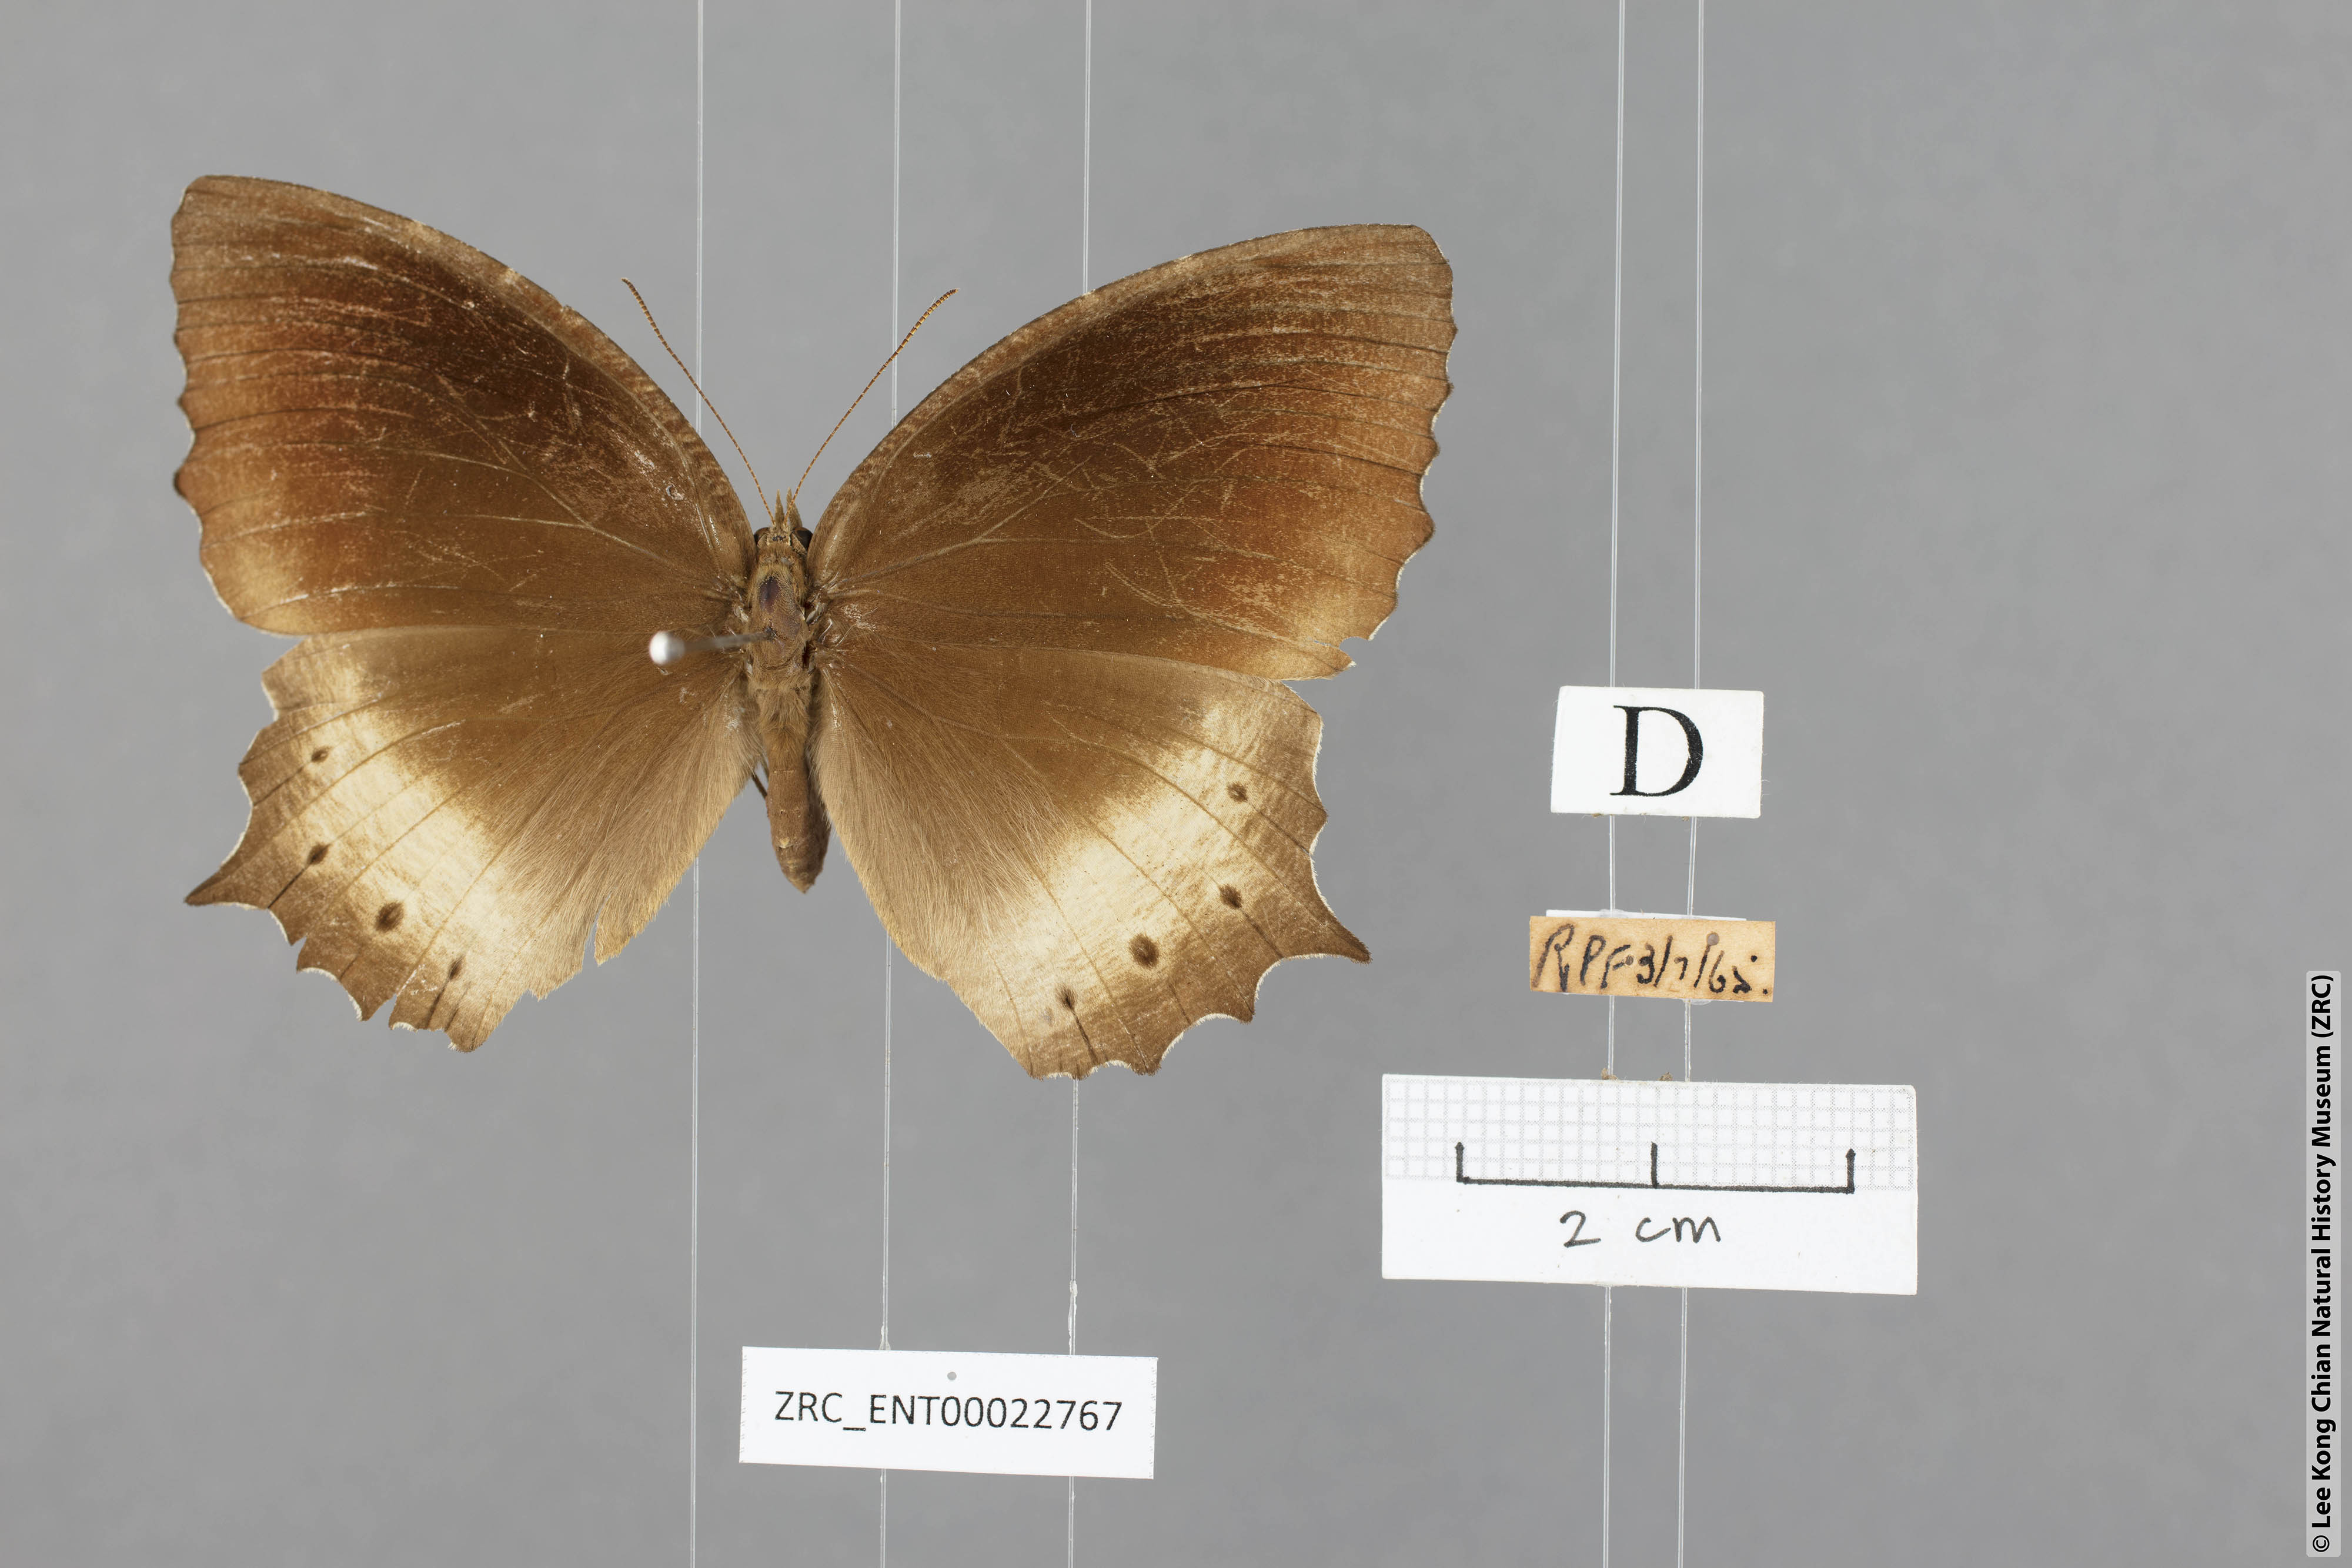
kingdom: Animalia
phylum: Arthropoda
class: Insecta
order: Lepidoptera
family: Nymphalidae
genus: Elymnias
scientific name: Elymnias panthera
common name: Tawny palmfly
